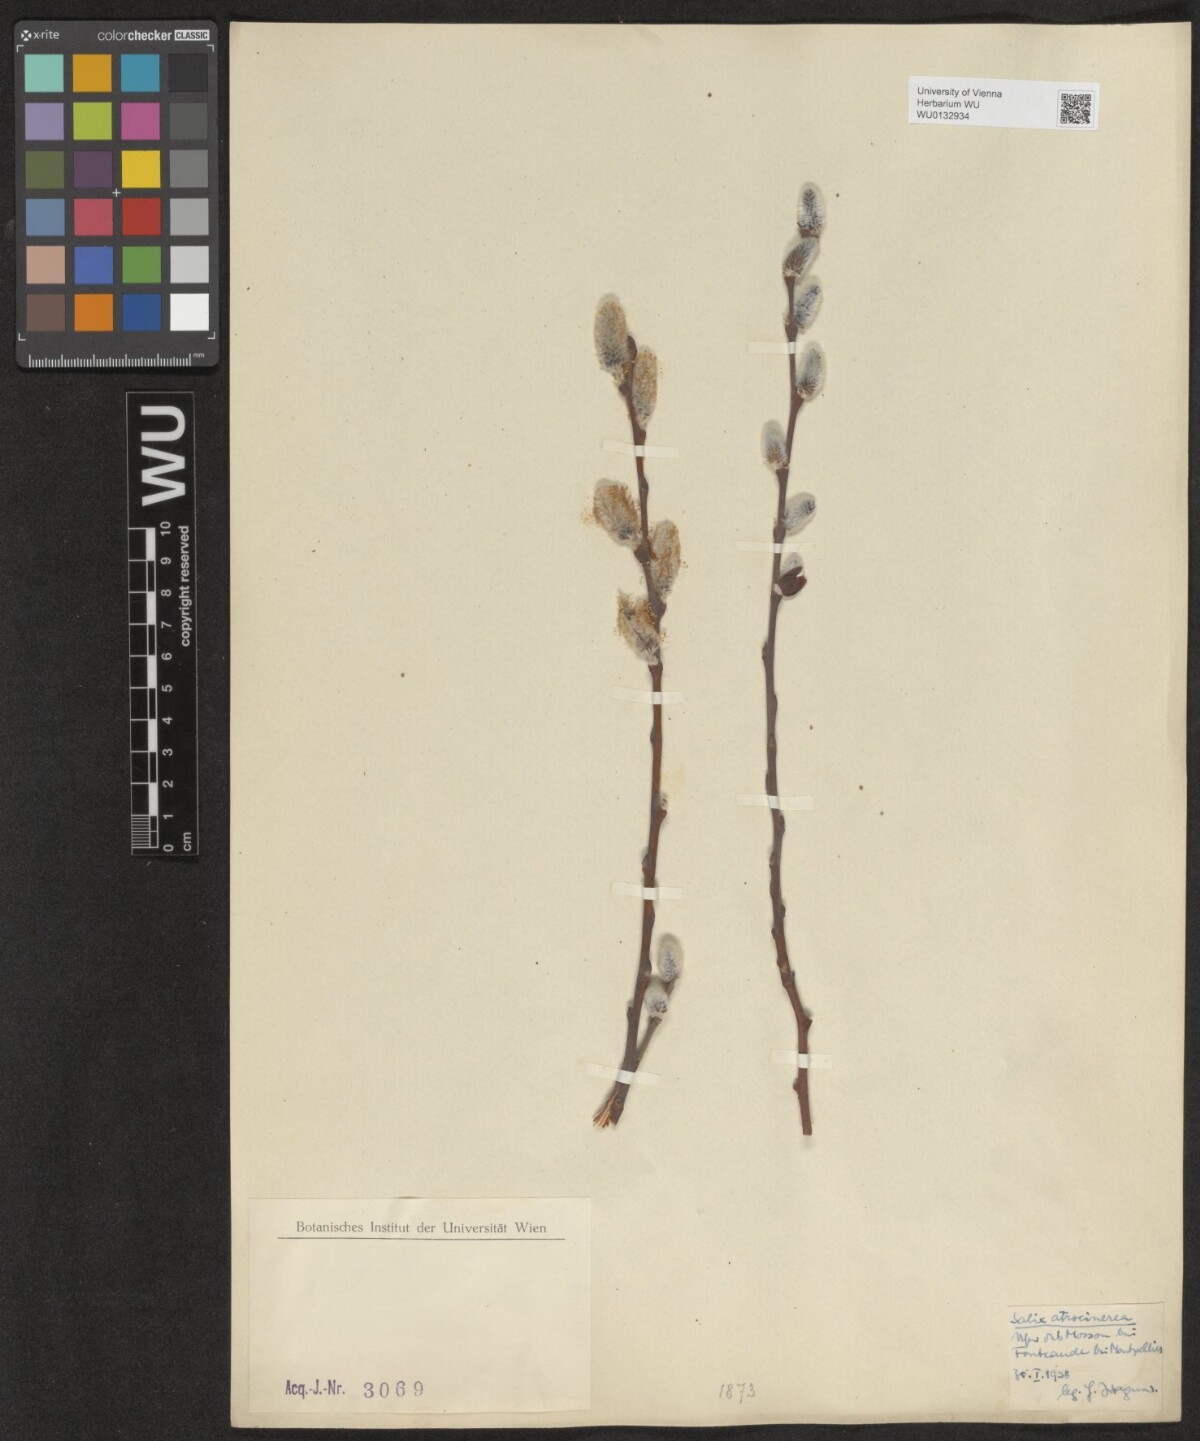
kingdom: Plantae
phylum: Tracheophyta
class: Magnoliopsida
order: Malpighiales
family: Salicaceae
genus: Salix
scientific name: Salix atrocinerea
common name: Rusty willow
